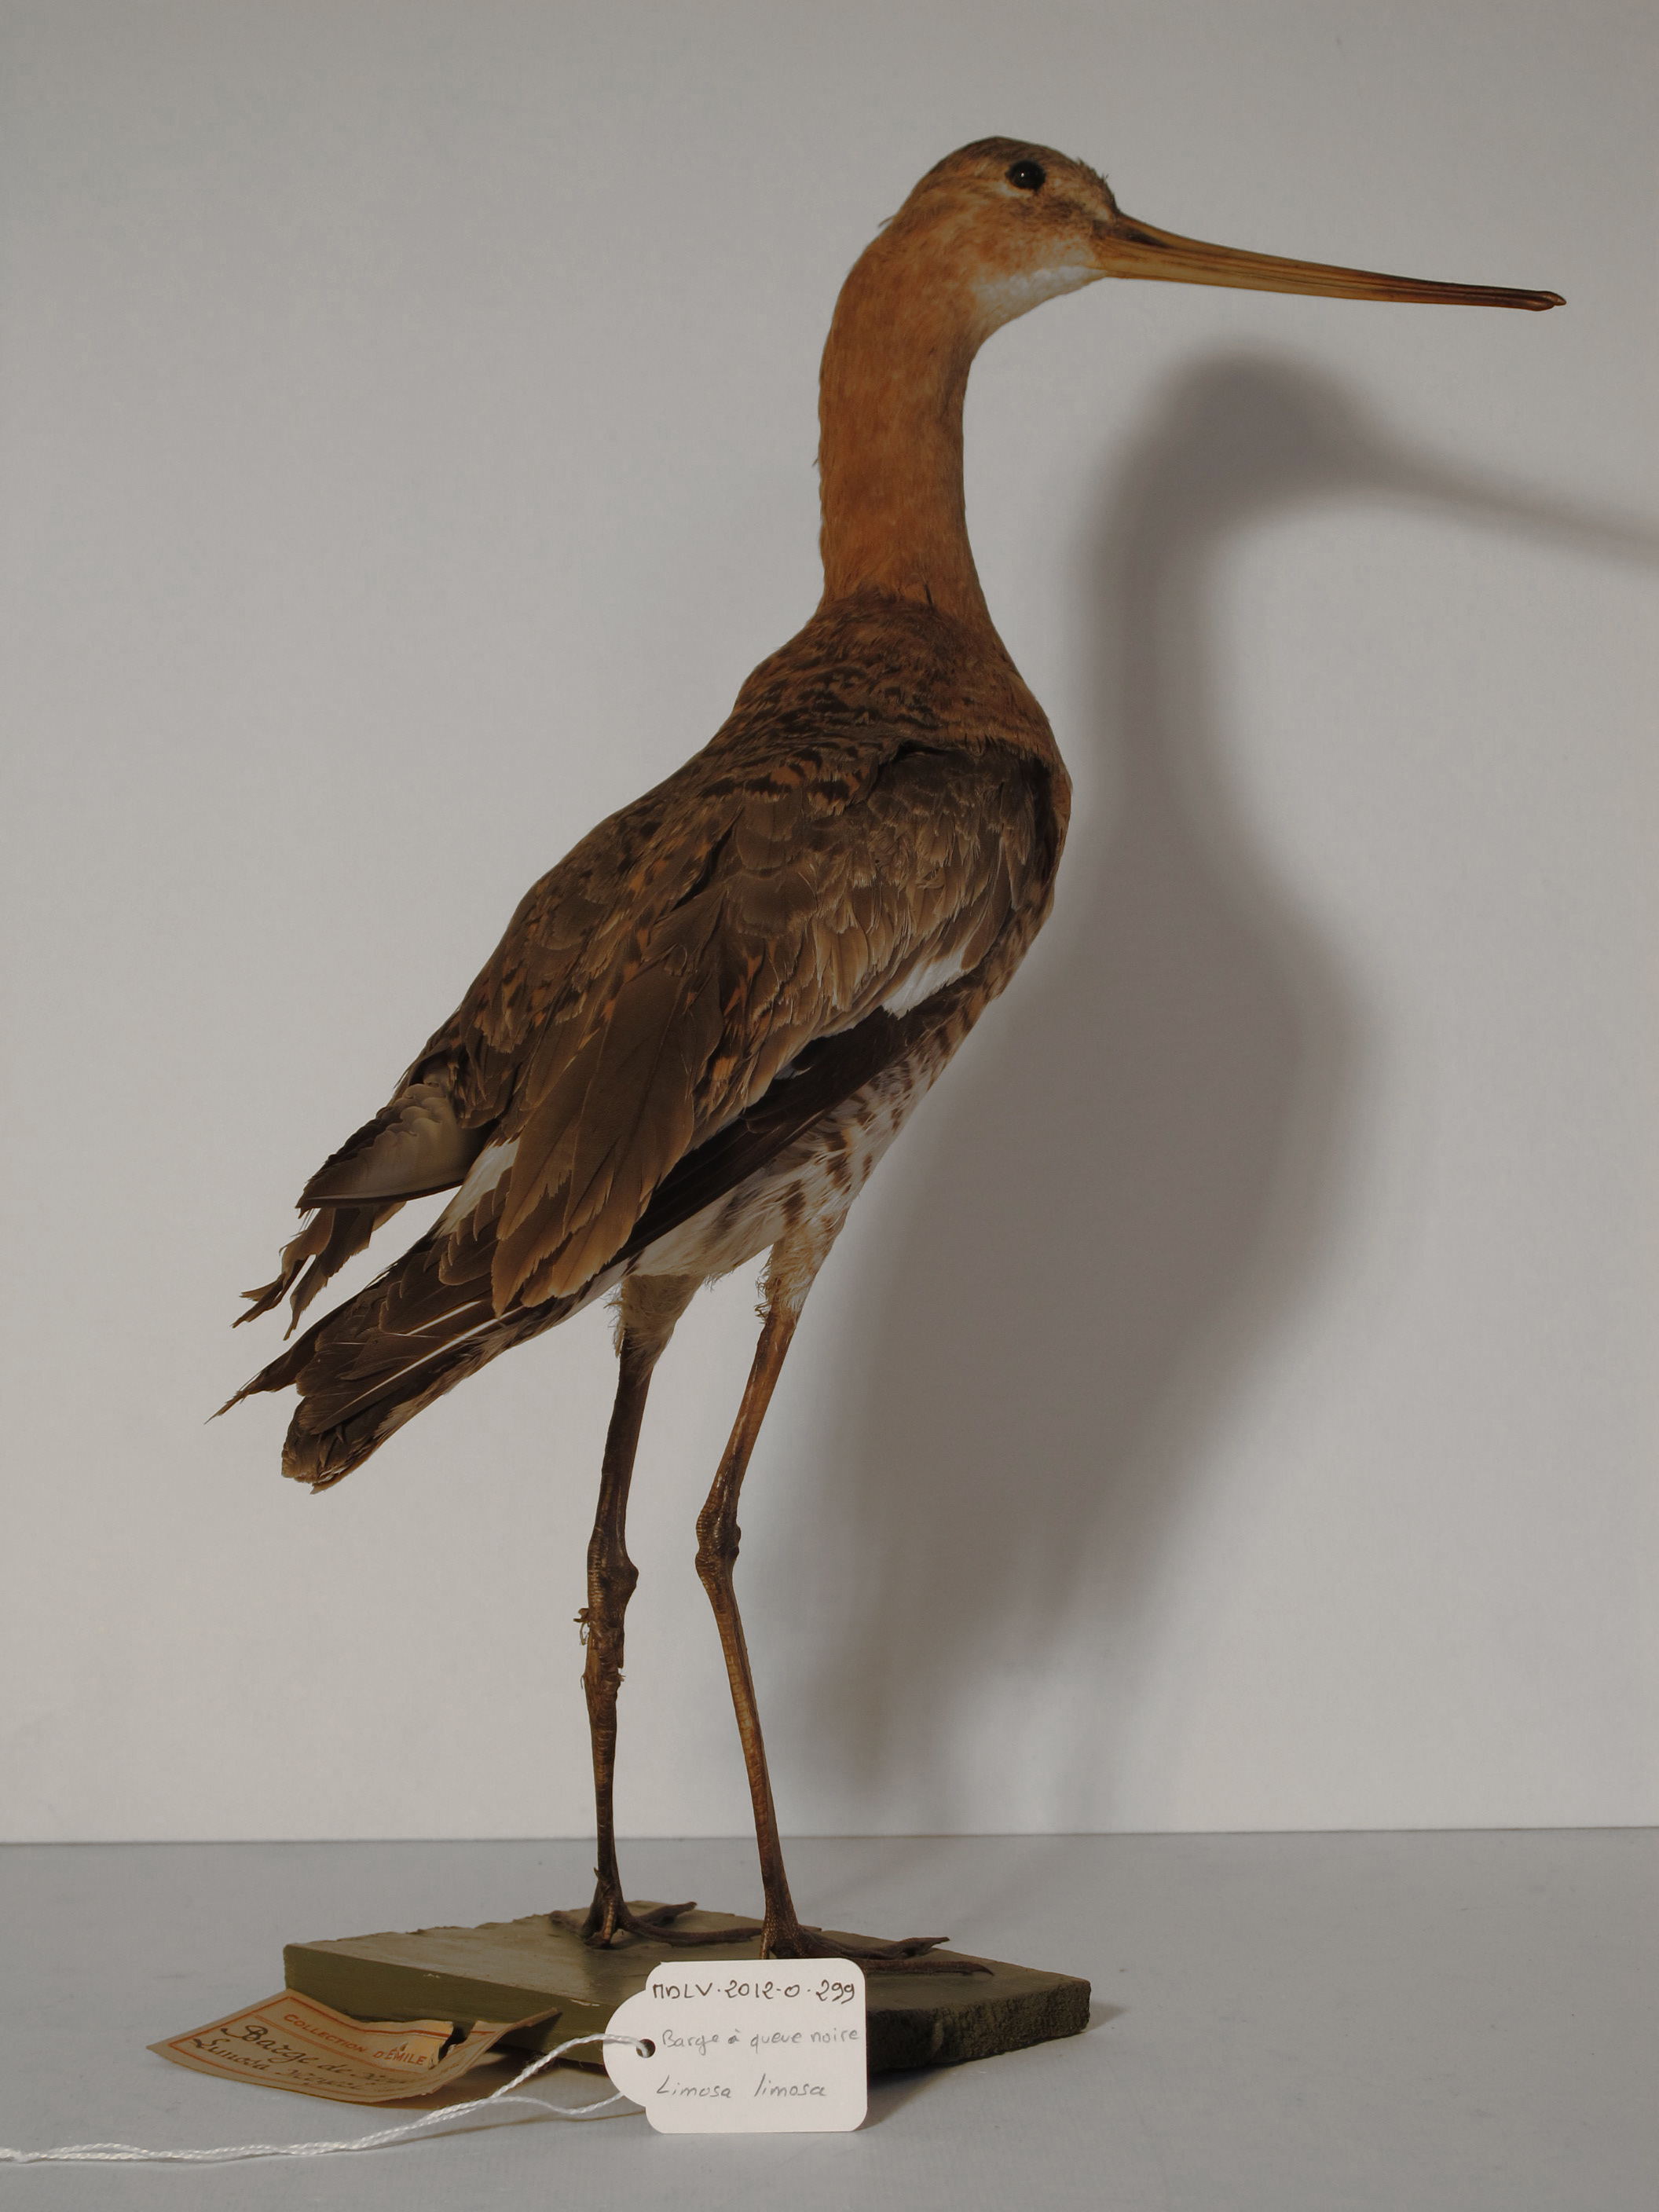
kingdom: Animalia
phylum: Chordata
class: Aves
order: Charadriiformes
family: Scolopacidae
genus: Limosa
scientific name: Limosa limosa
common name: Black-tailed Godwit
